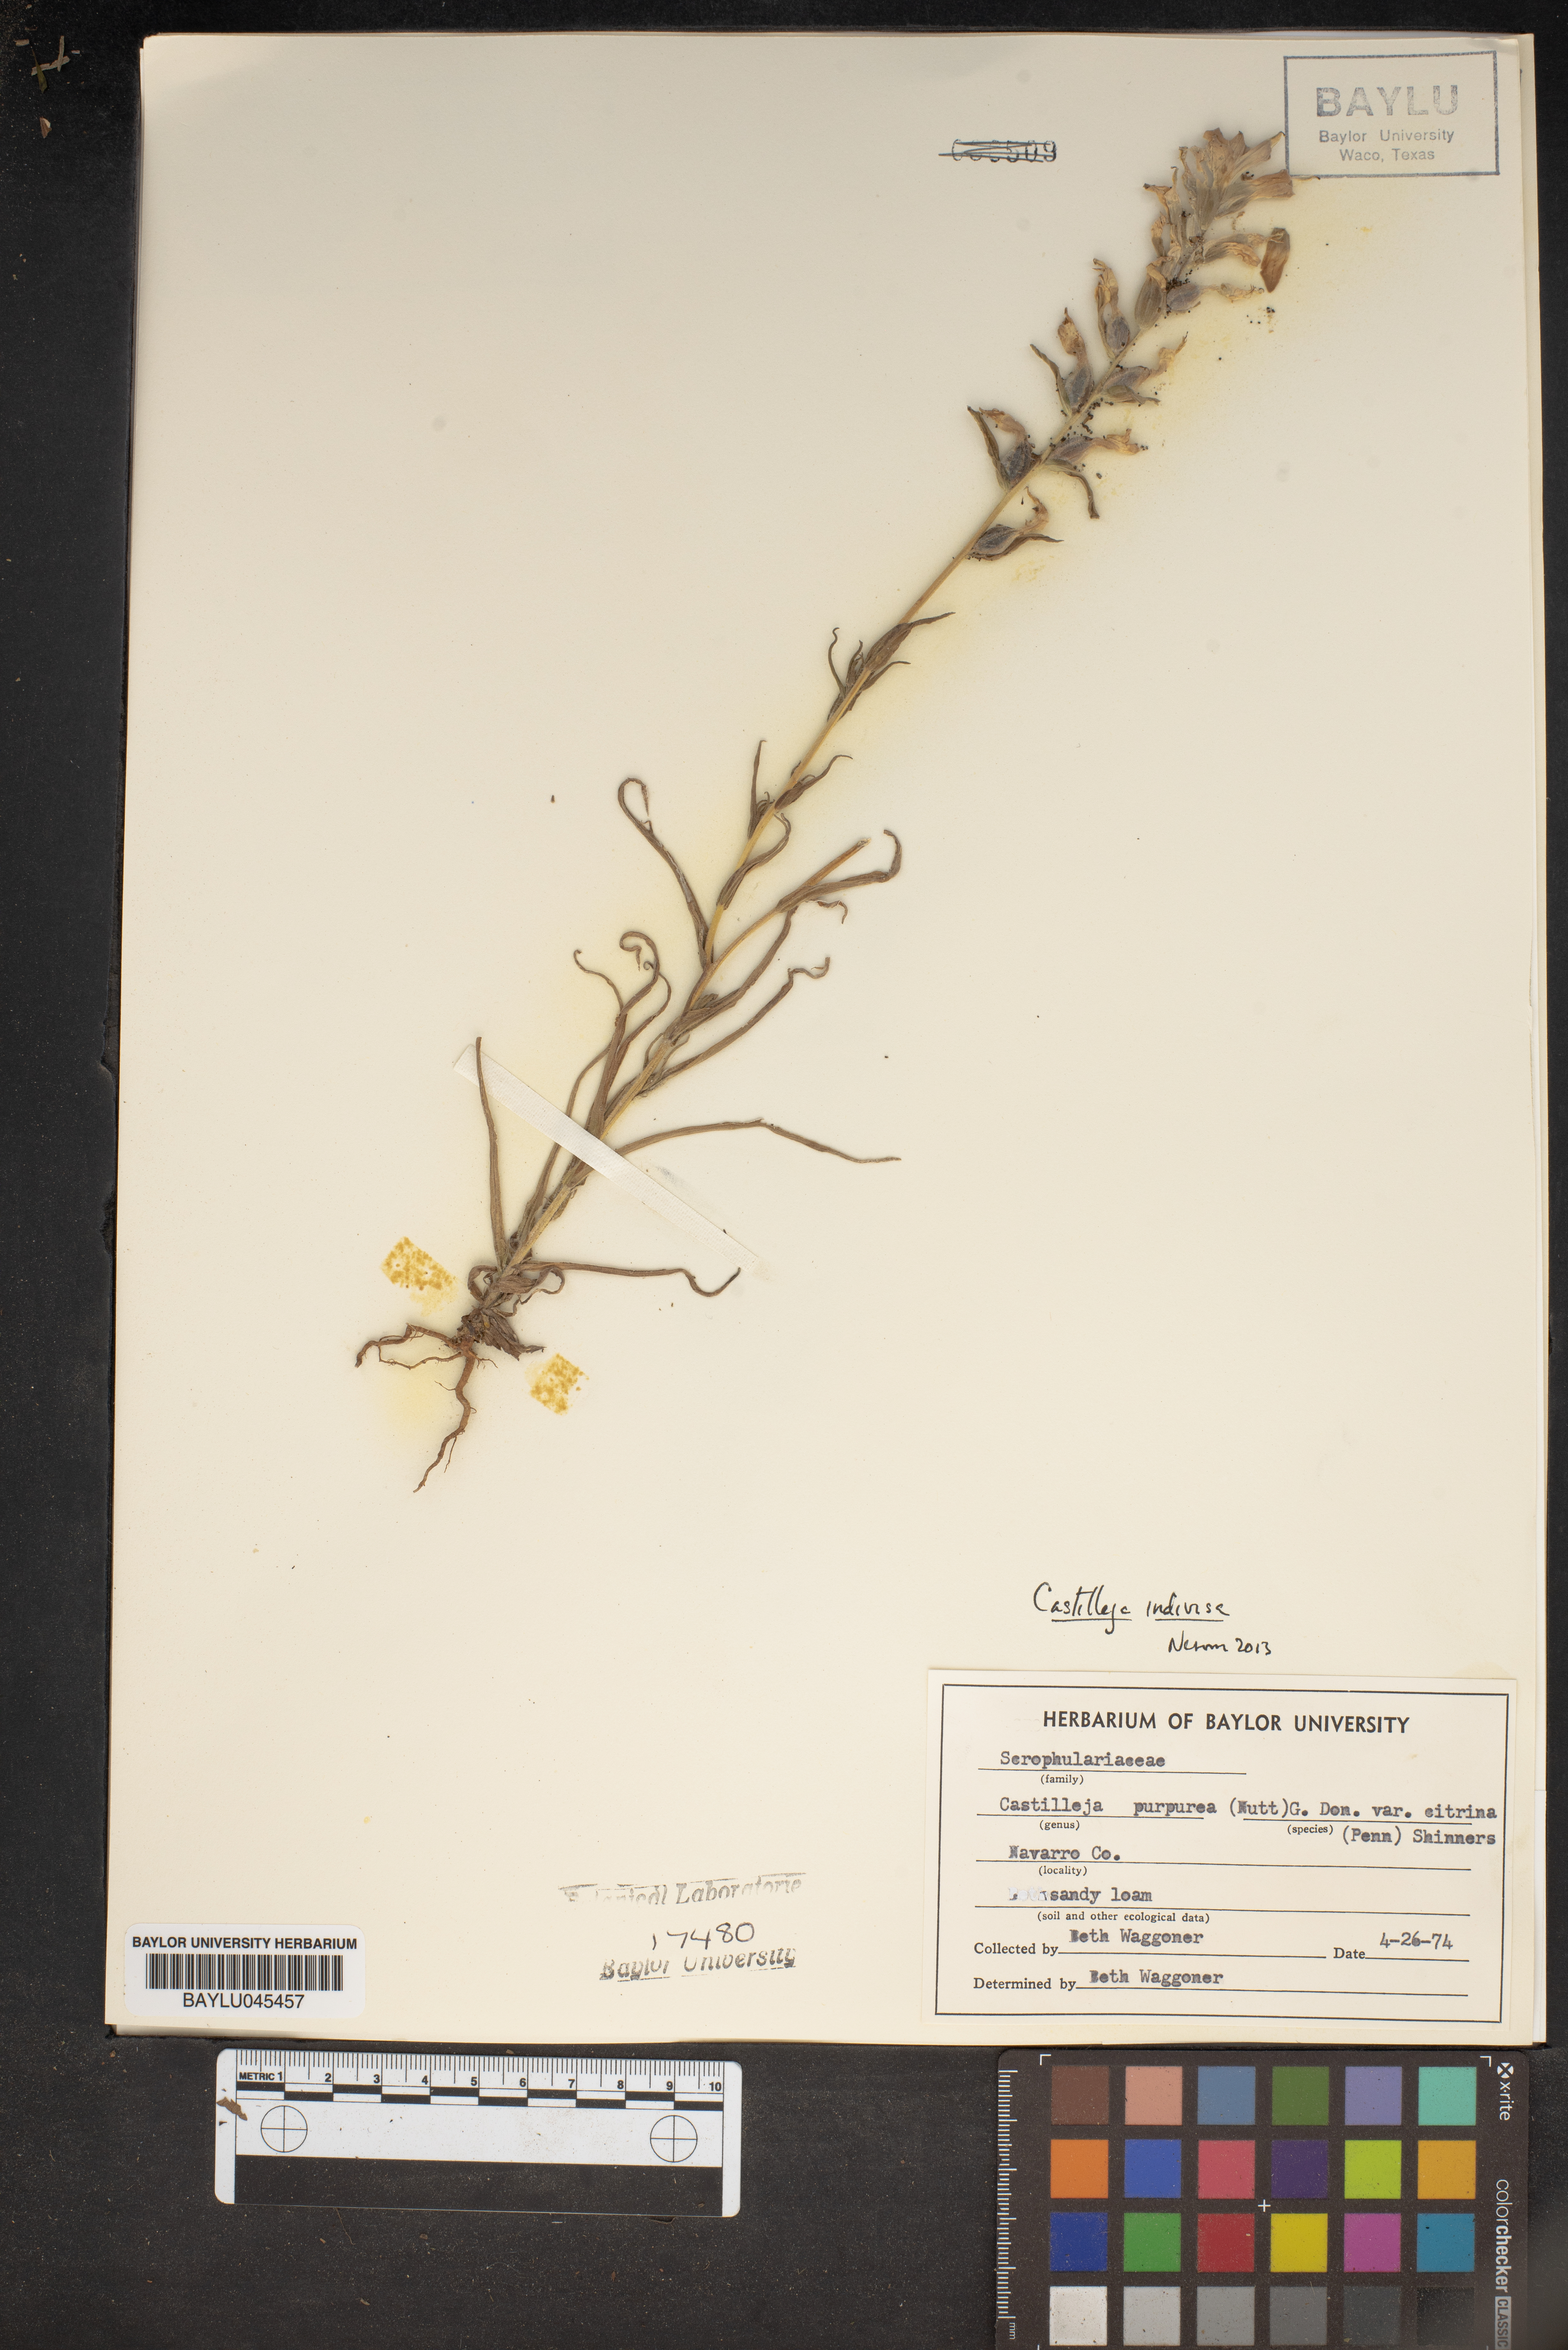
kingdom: Plantae
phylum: Tracheophyta
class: Magnoliopsida
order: Lamiales
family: Orobanchaceae
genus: Castilleja
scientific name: Castilleja citrina
